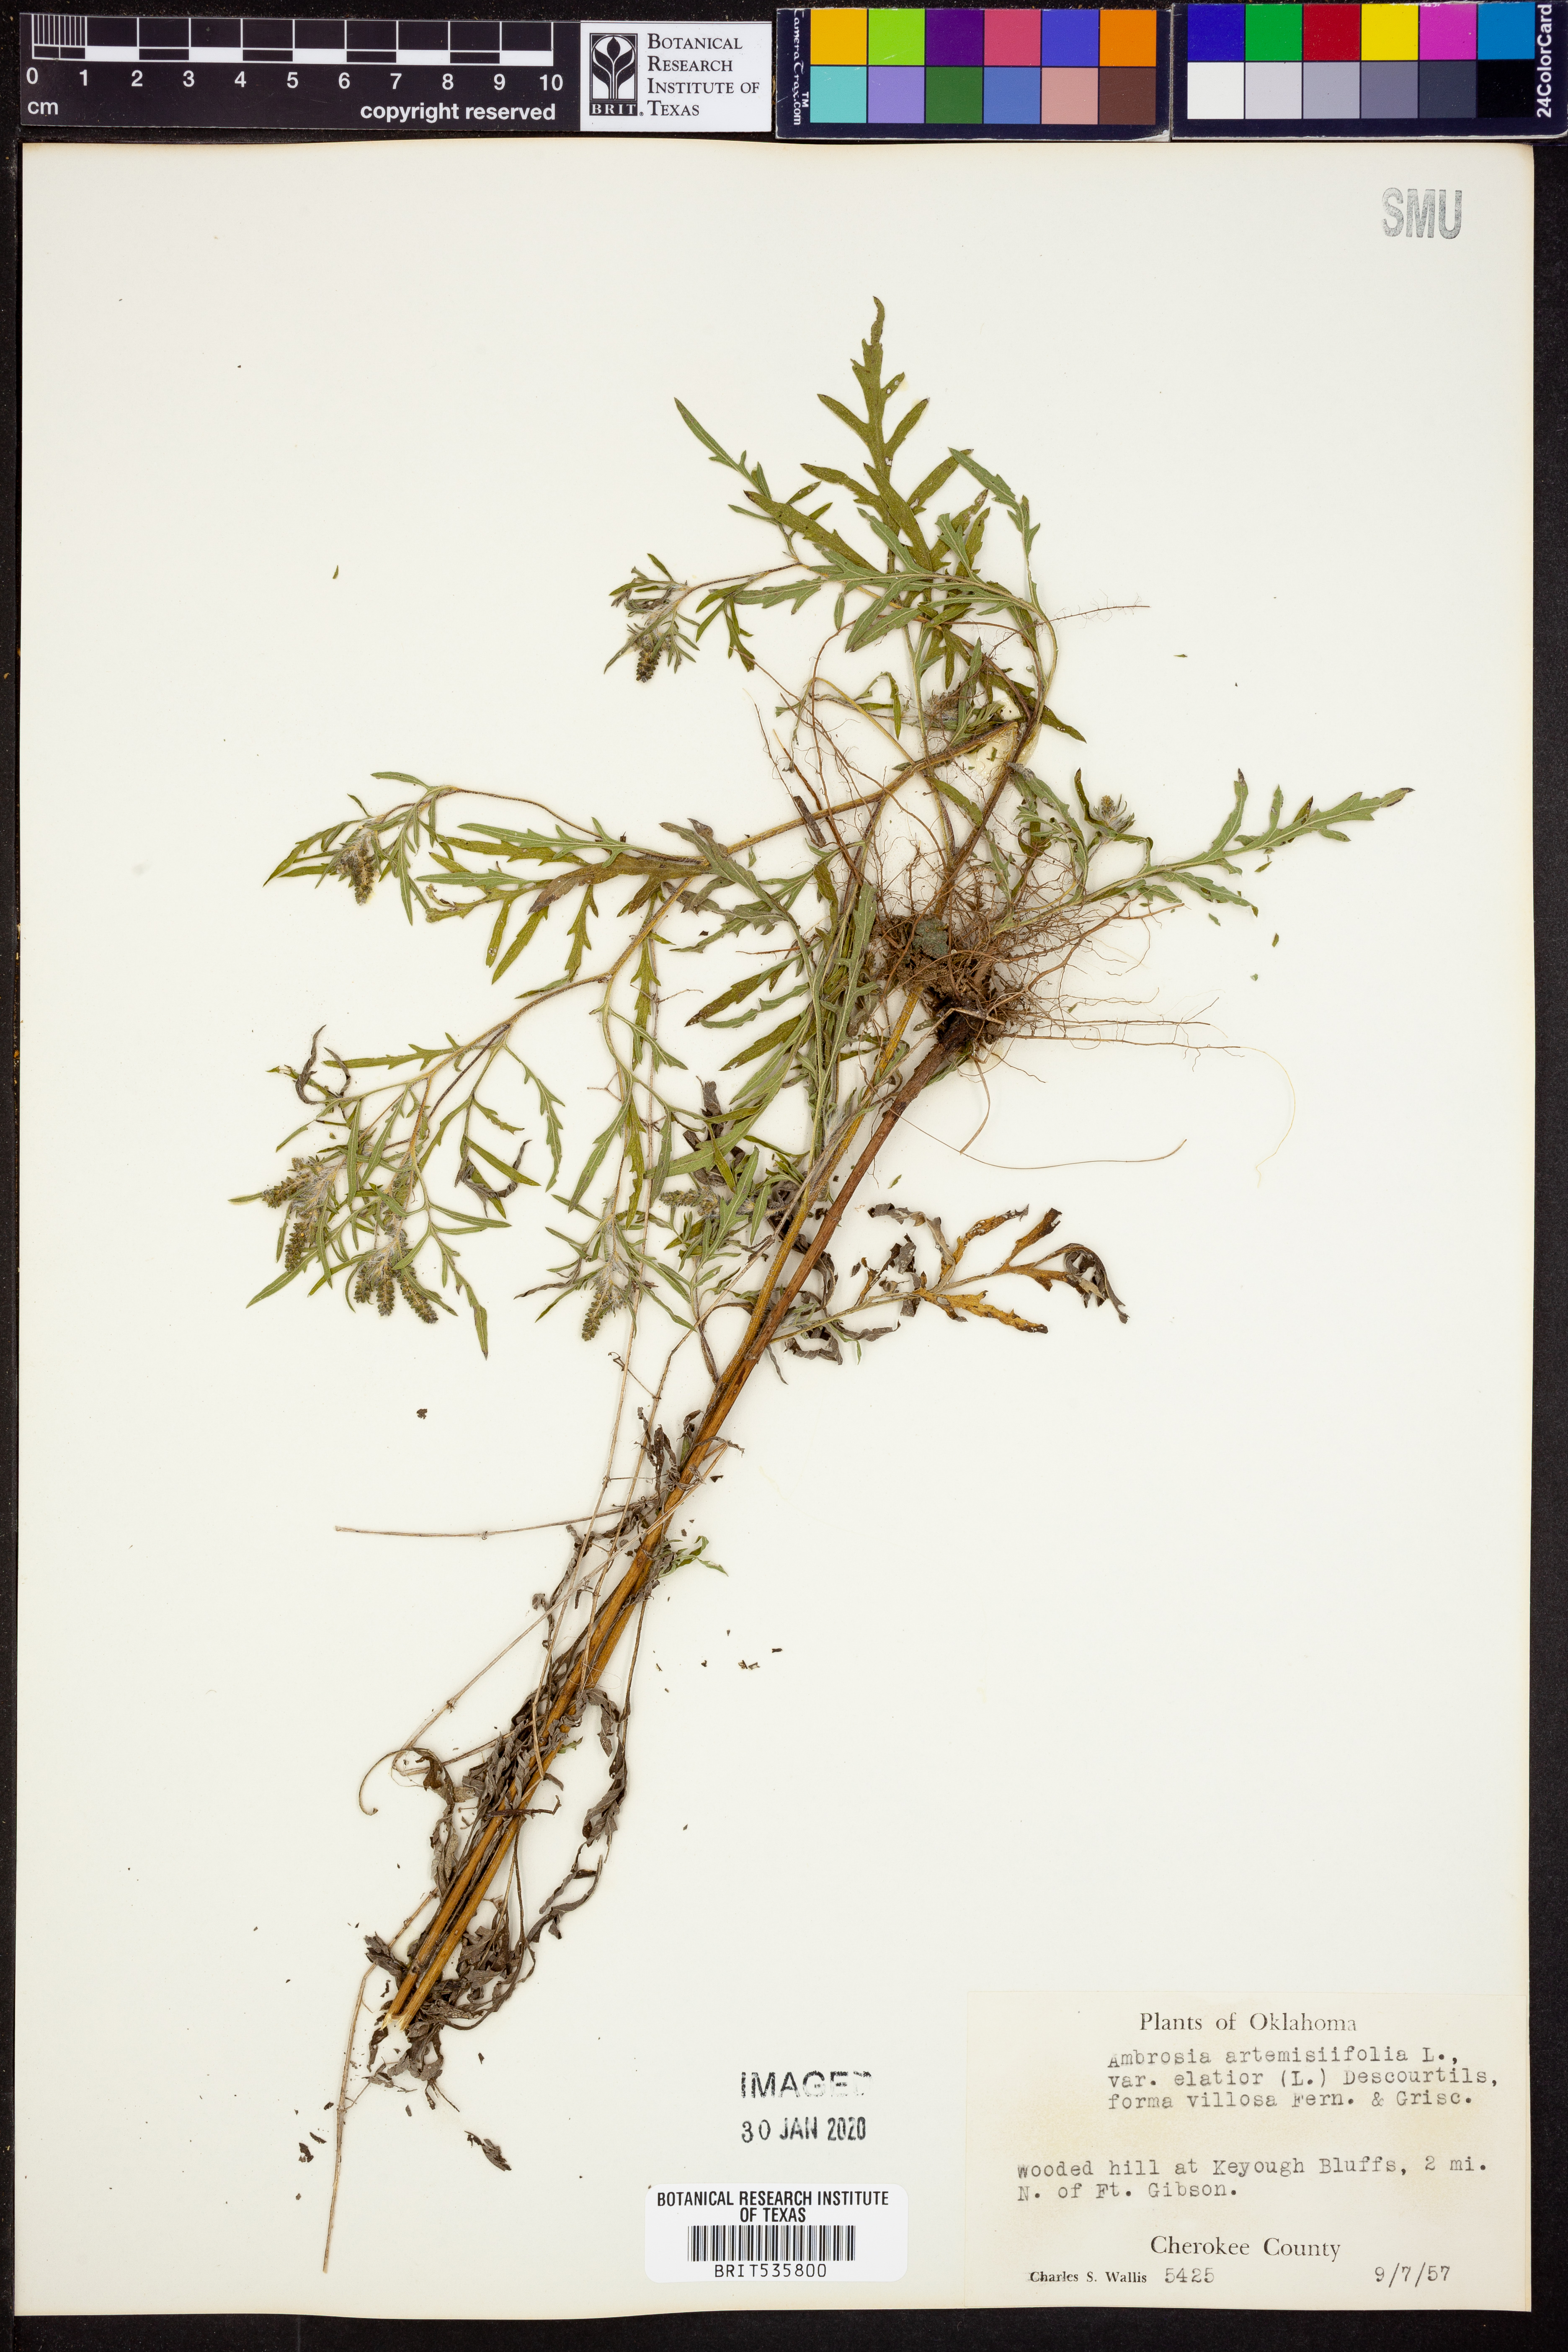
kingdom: Plantae
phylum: Tracheophyta
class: Magnoliopsida
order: Asterales
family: Asteraceae
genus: Ambrosia
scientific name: Ambrosia artemisiifolia
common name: Annual ragweed
